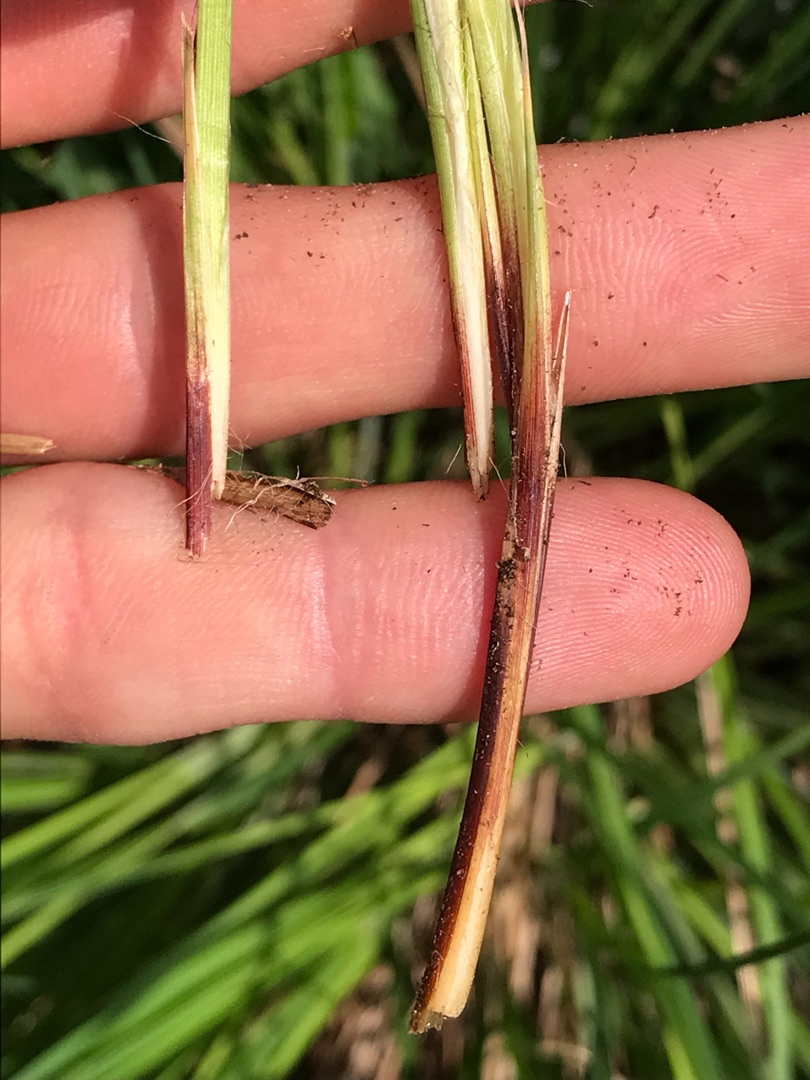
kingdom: Plantae
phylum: Tracheophyta
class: Liliopsida
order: Poales
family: Cyperaceae
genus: Carex
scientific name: Carex cespitosa
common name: Tue-star
